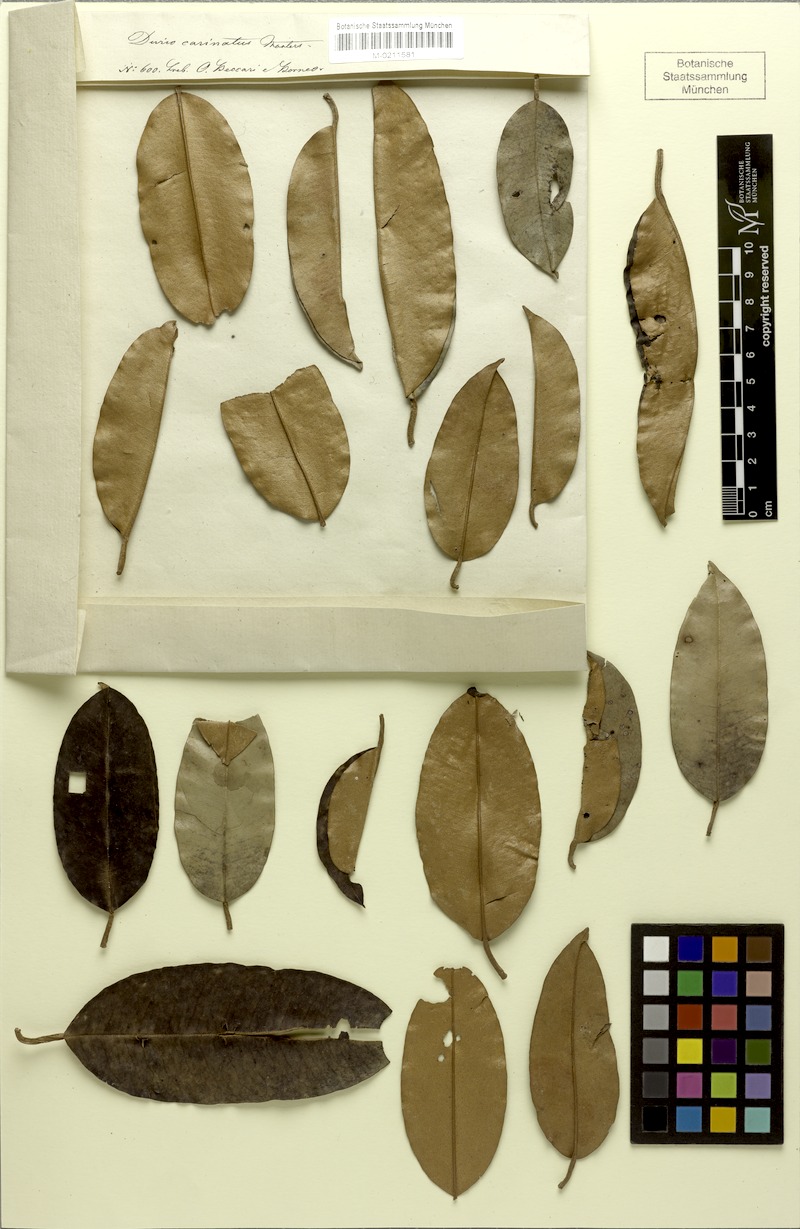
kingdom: Plantae
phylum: Tracheophyta
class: Magnoliopsida
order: Malvales
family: Malvaceae
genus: Durio
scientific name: Durio carinatus
